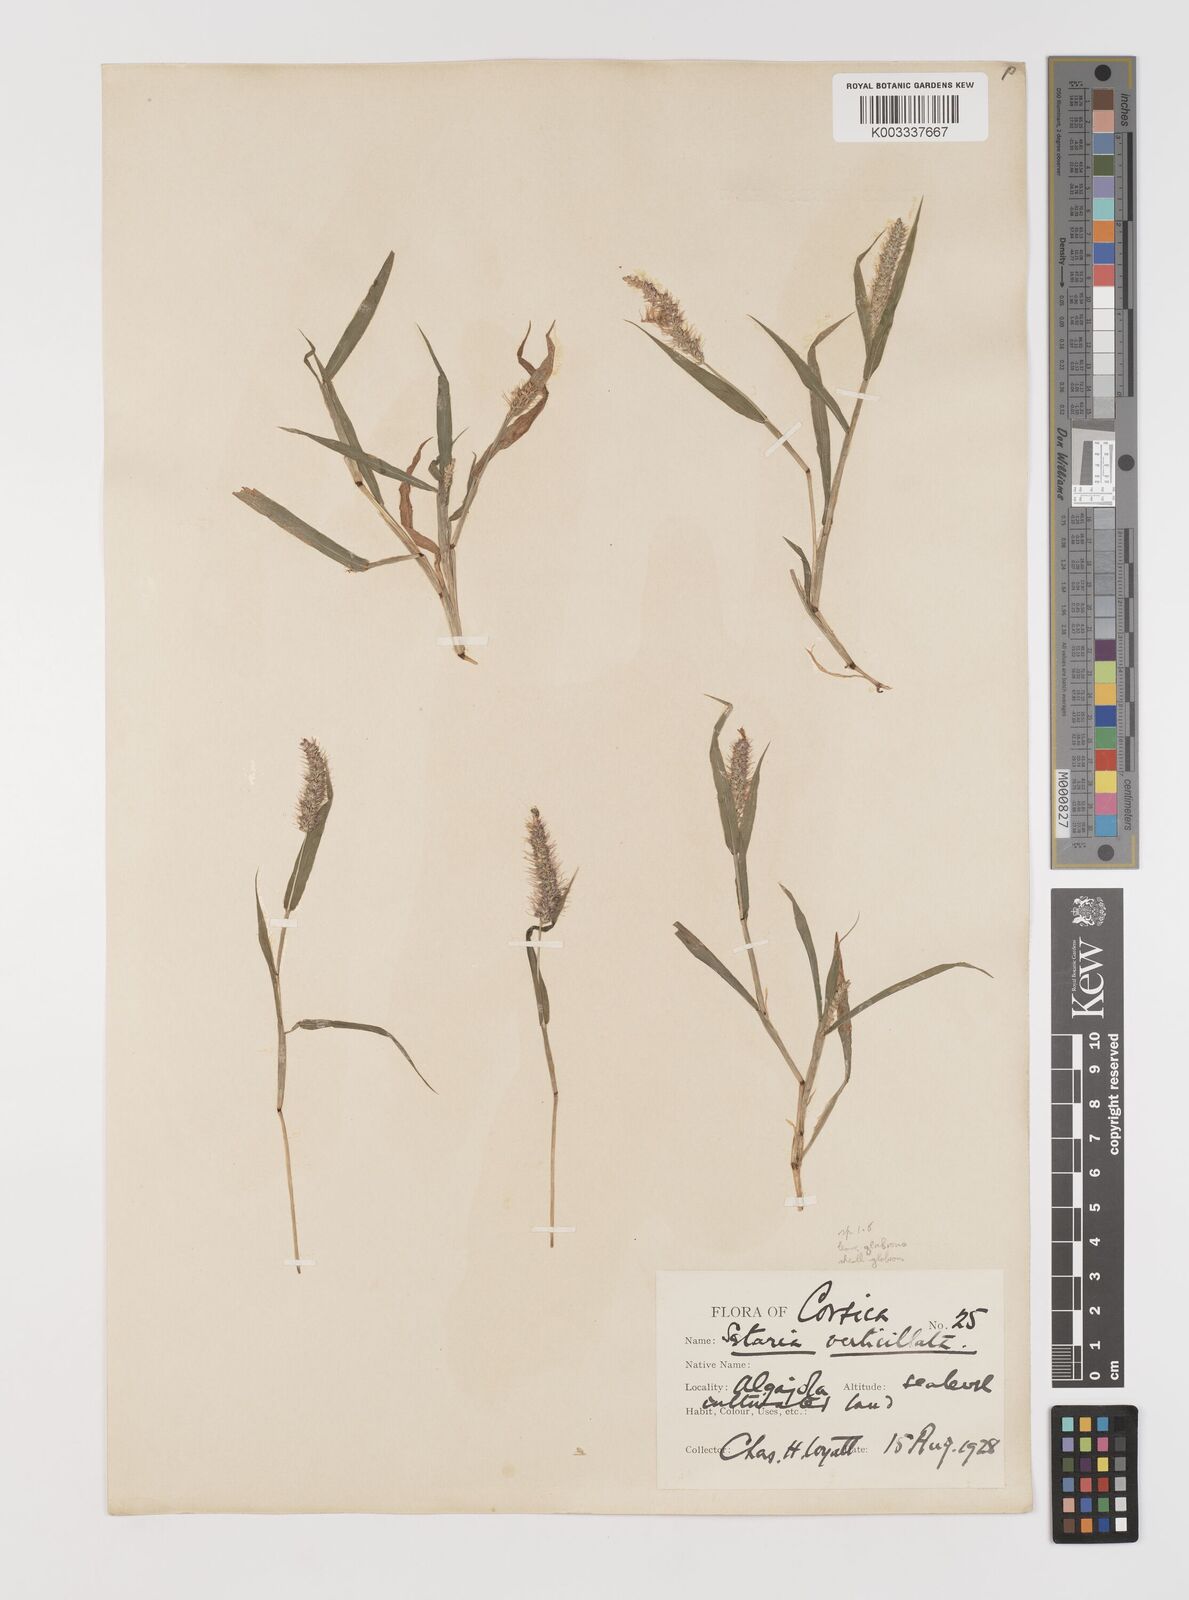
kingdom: Plantae
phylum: Tracheophyta
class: Liliopsida
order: Poales
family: Poaceae
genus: Setaria
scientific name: Setaria verticillata
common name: Hooked bristlegrass
